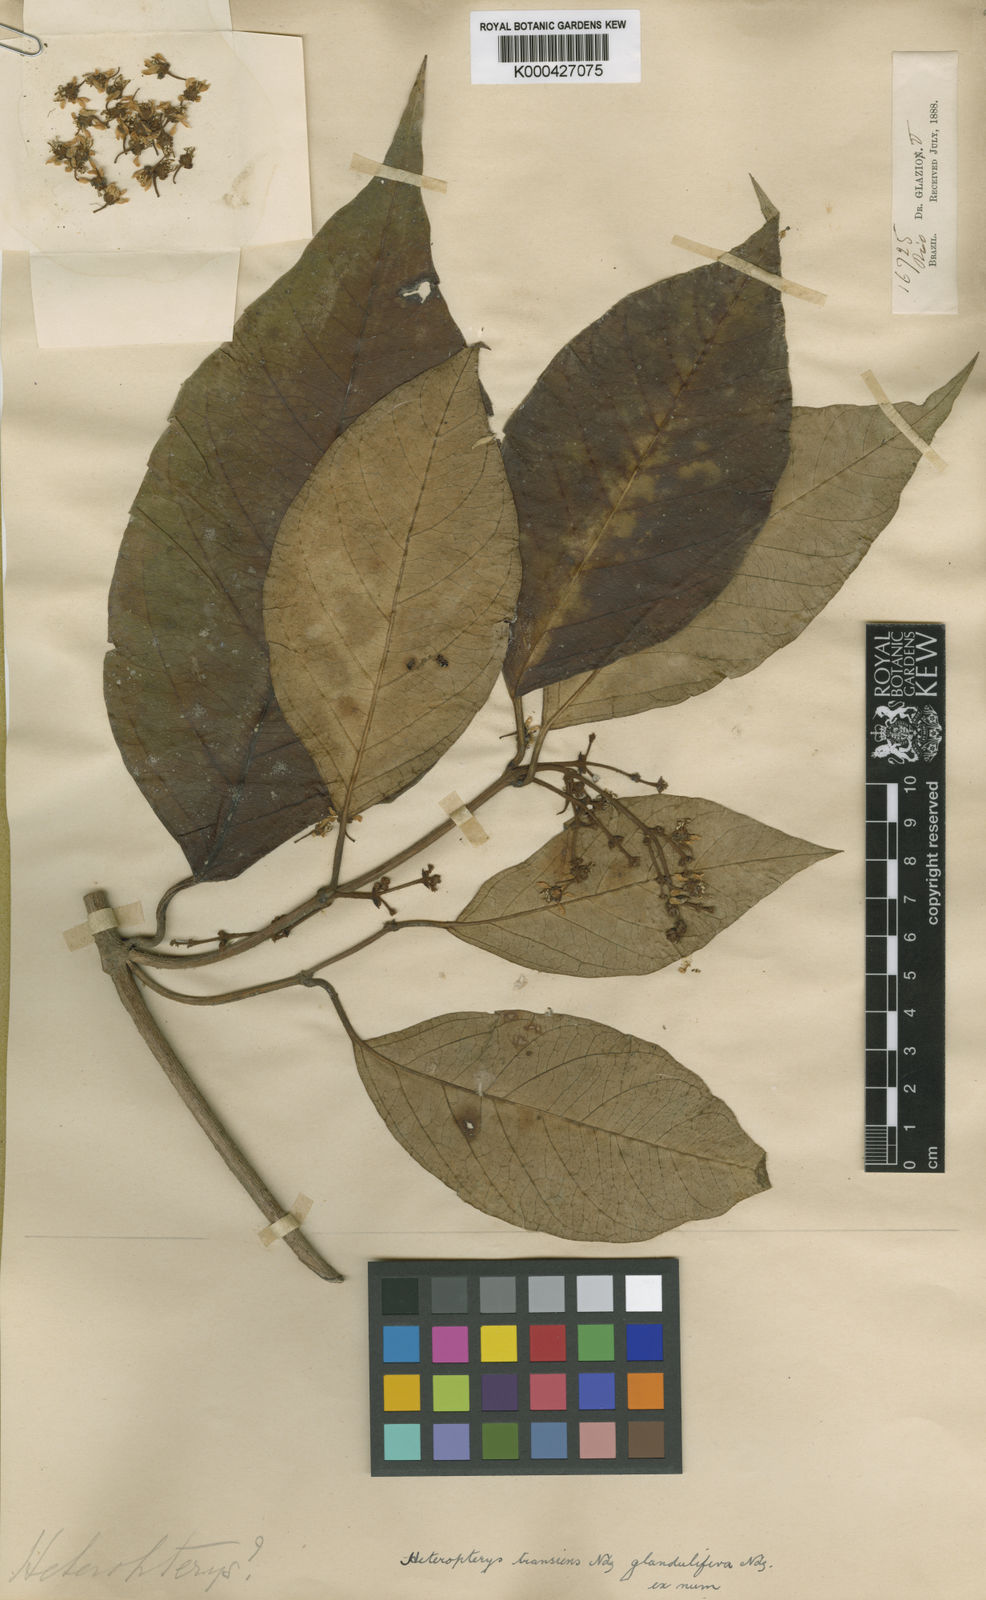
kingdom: Plantae
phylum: Tracheophyta
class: Magnoliopsida
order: Malpighiales
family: Malpighiaceae
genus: Heteropterys
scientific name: Heteropterys transiens
